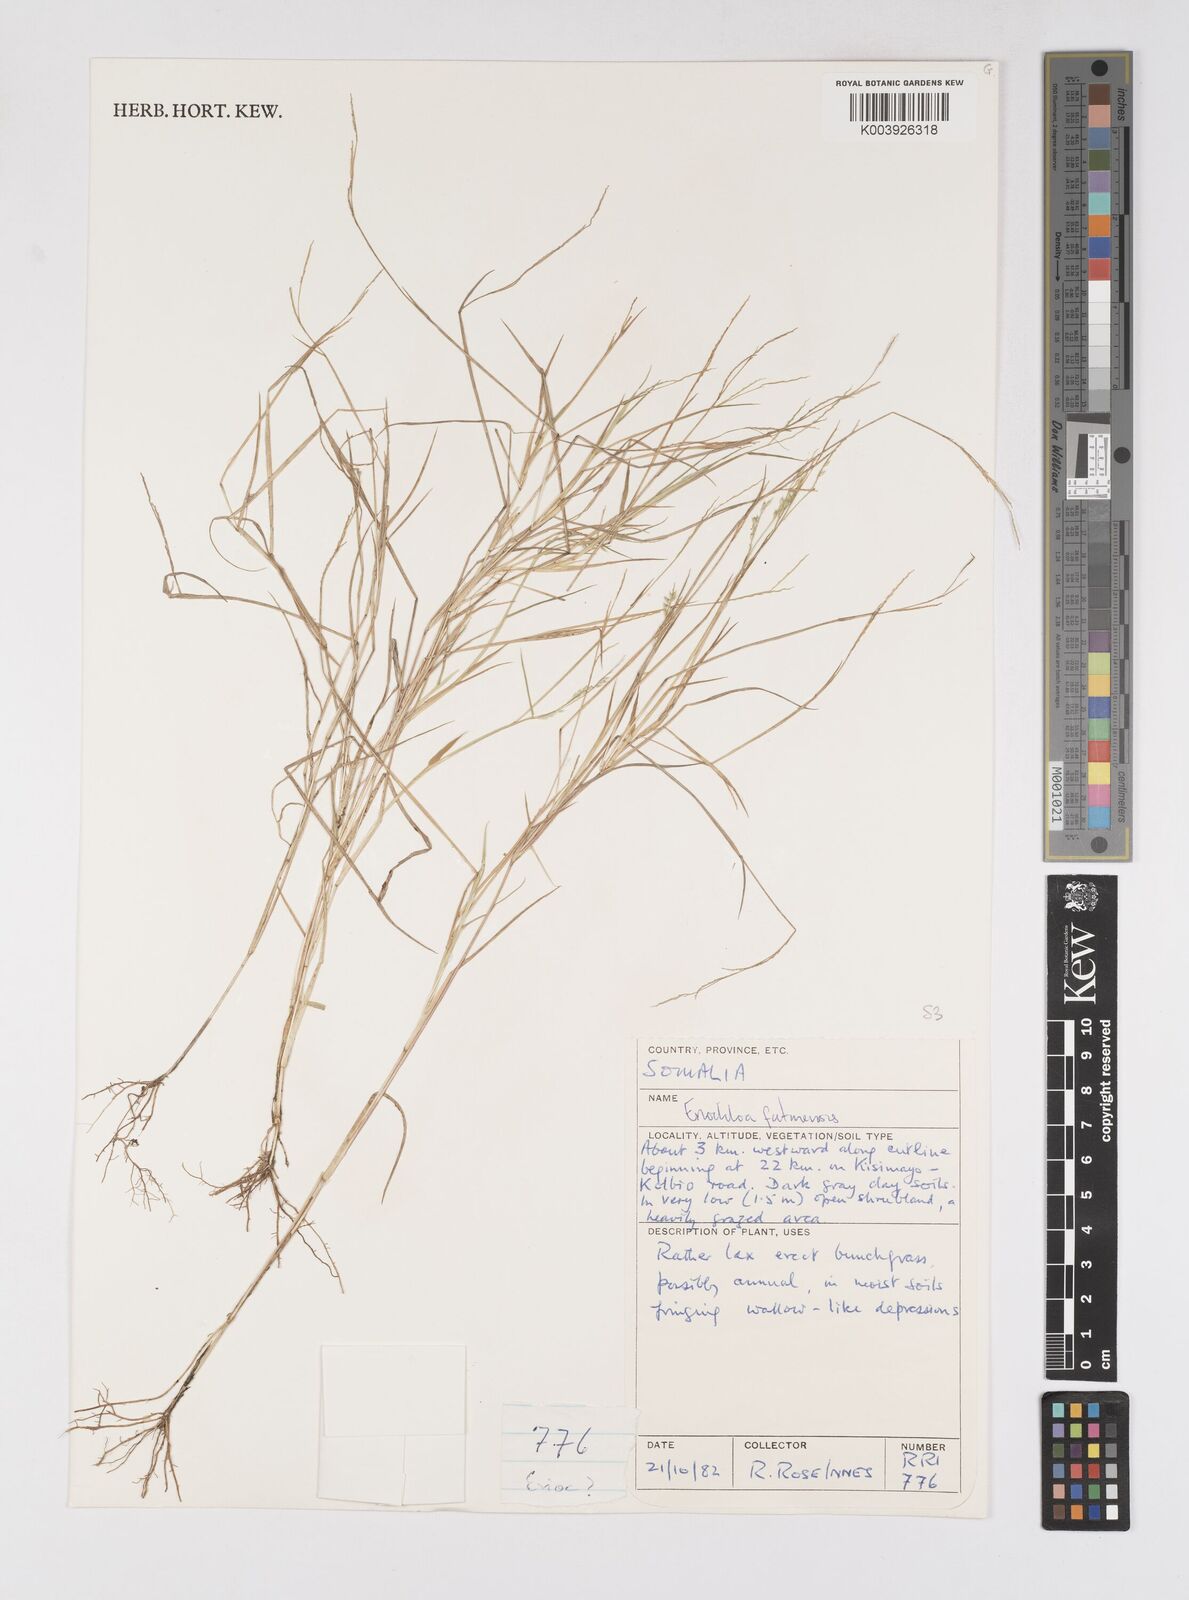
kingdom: Plantae
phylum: Tracheophyta
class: Liliopsida
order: Poales
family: Poaceae
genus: Eriochloa
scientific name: Eriochloa barbatus
